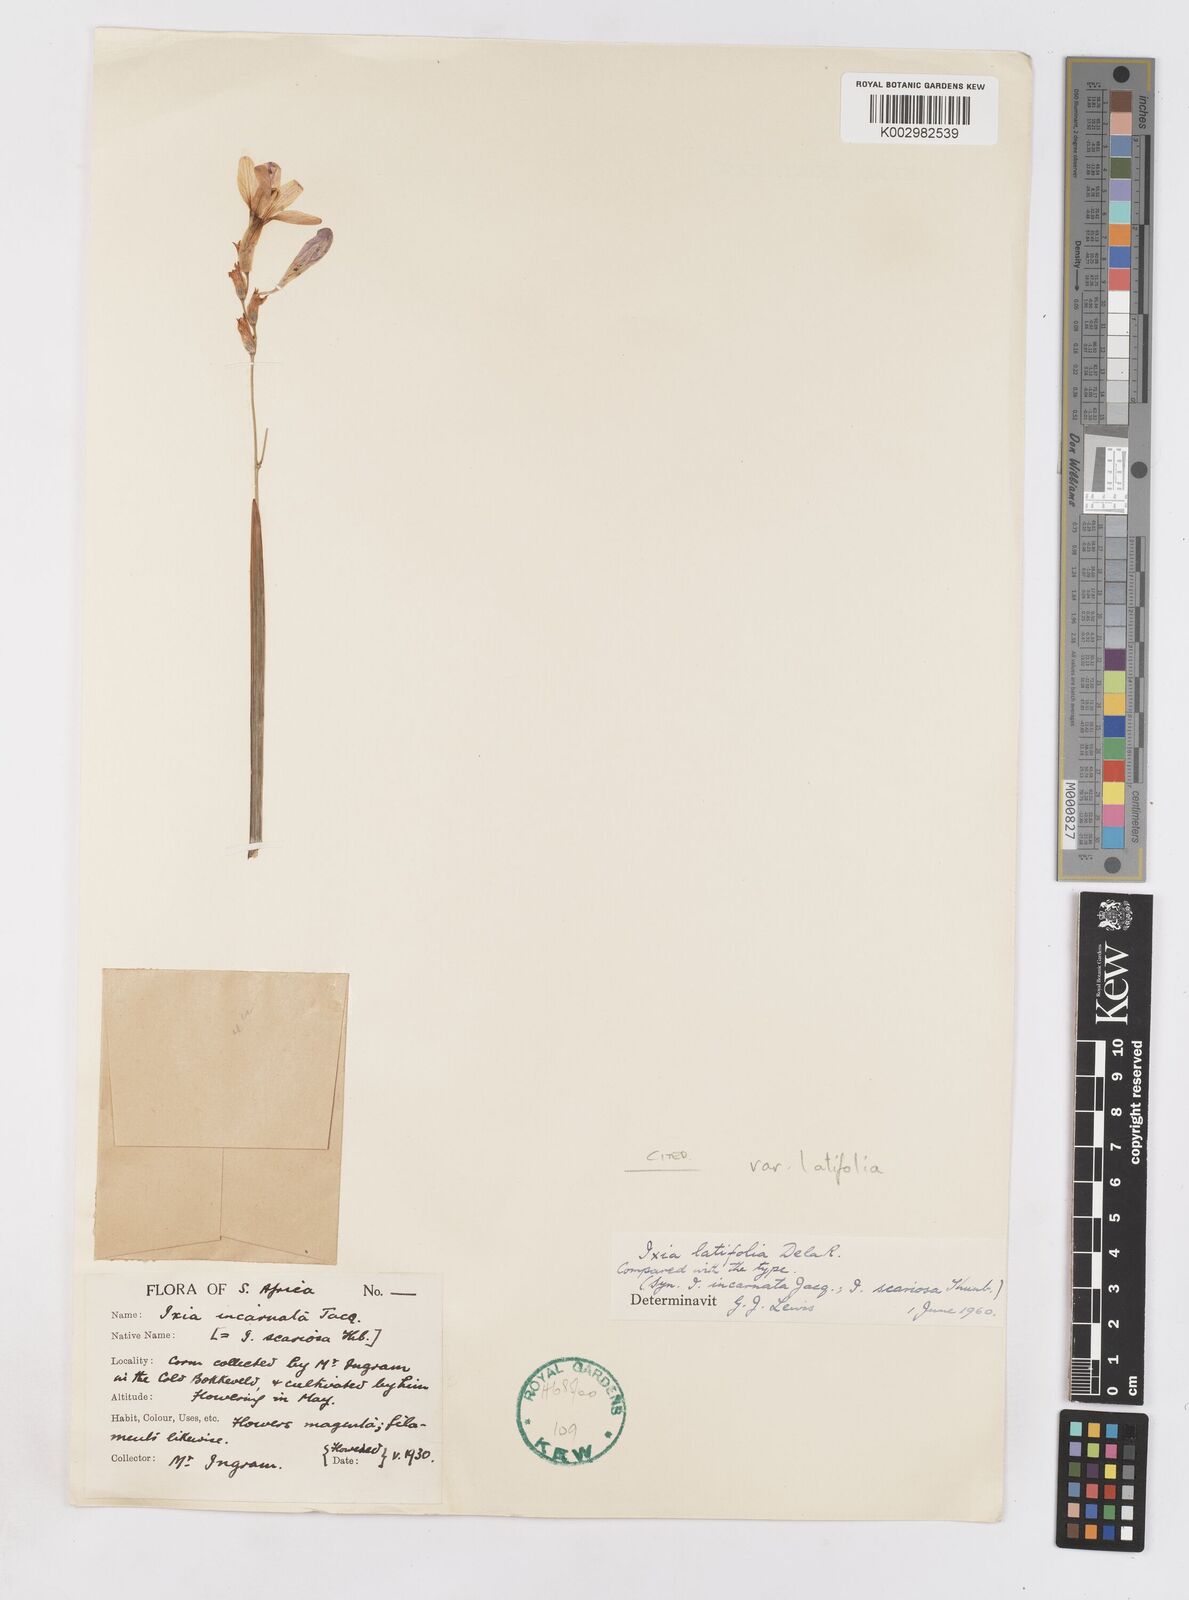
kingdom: Plantae
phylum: Tracheophyta
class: Liliopsida
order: Asparagales
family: Iridaceae
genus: Ixia
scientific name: Ixia latifolia
